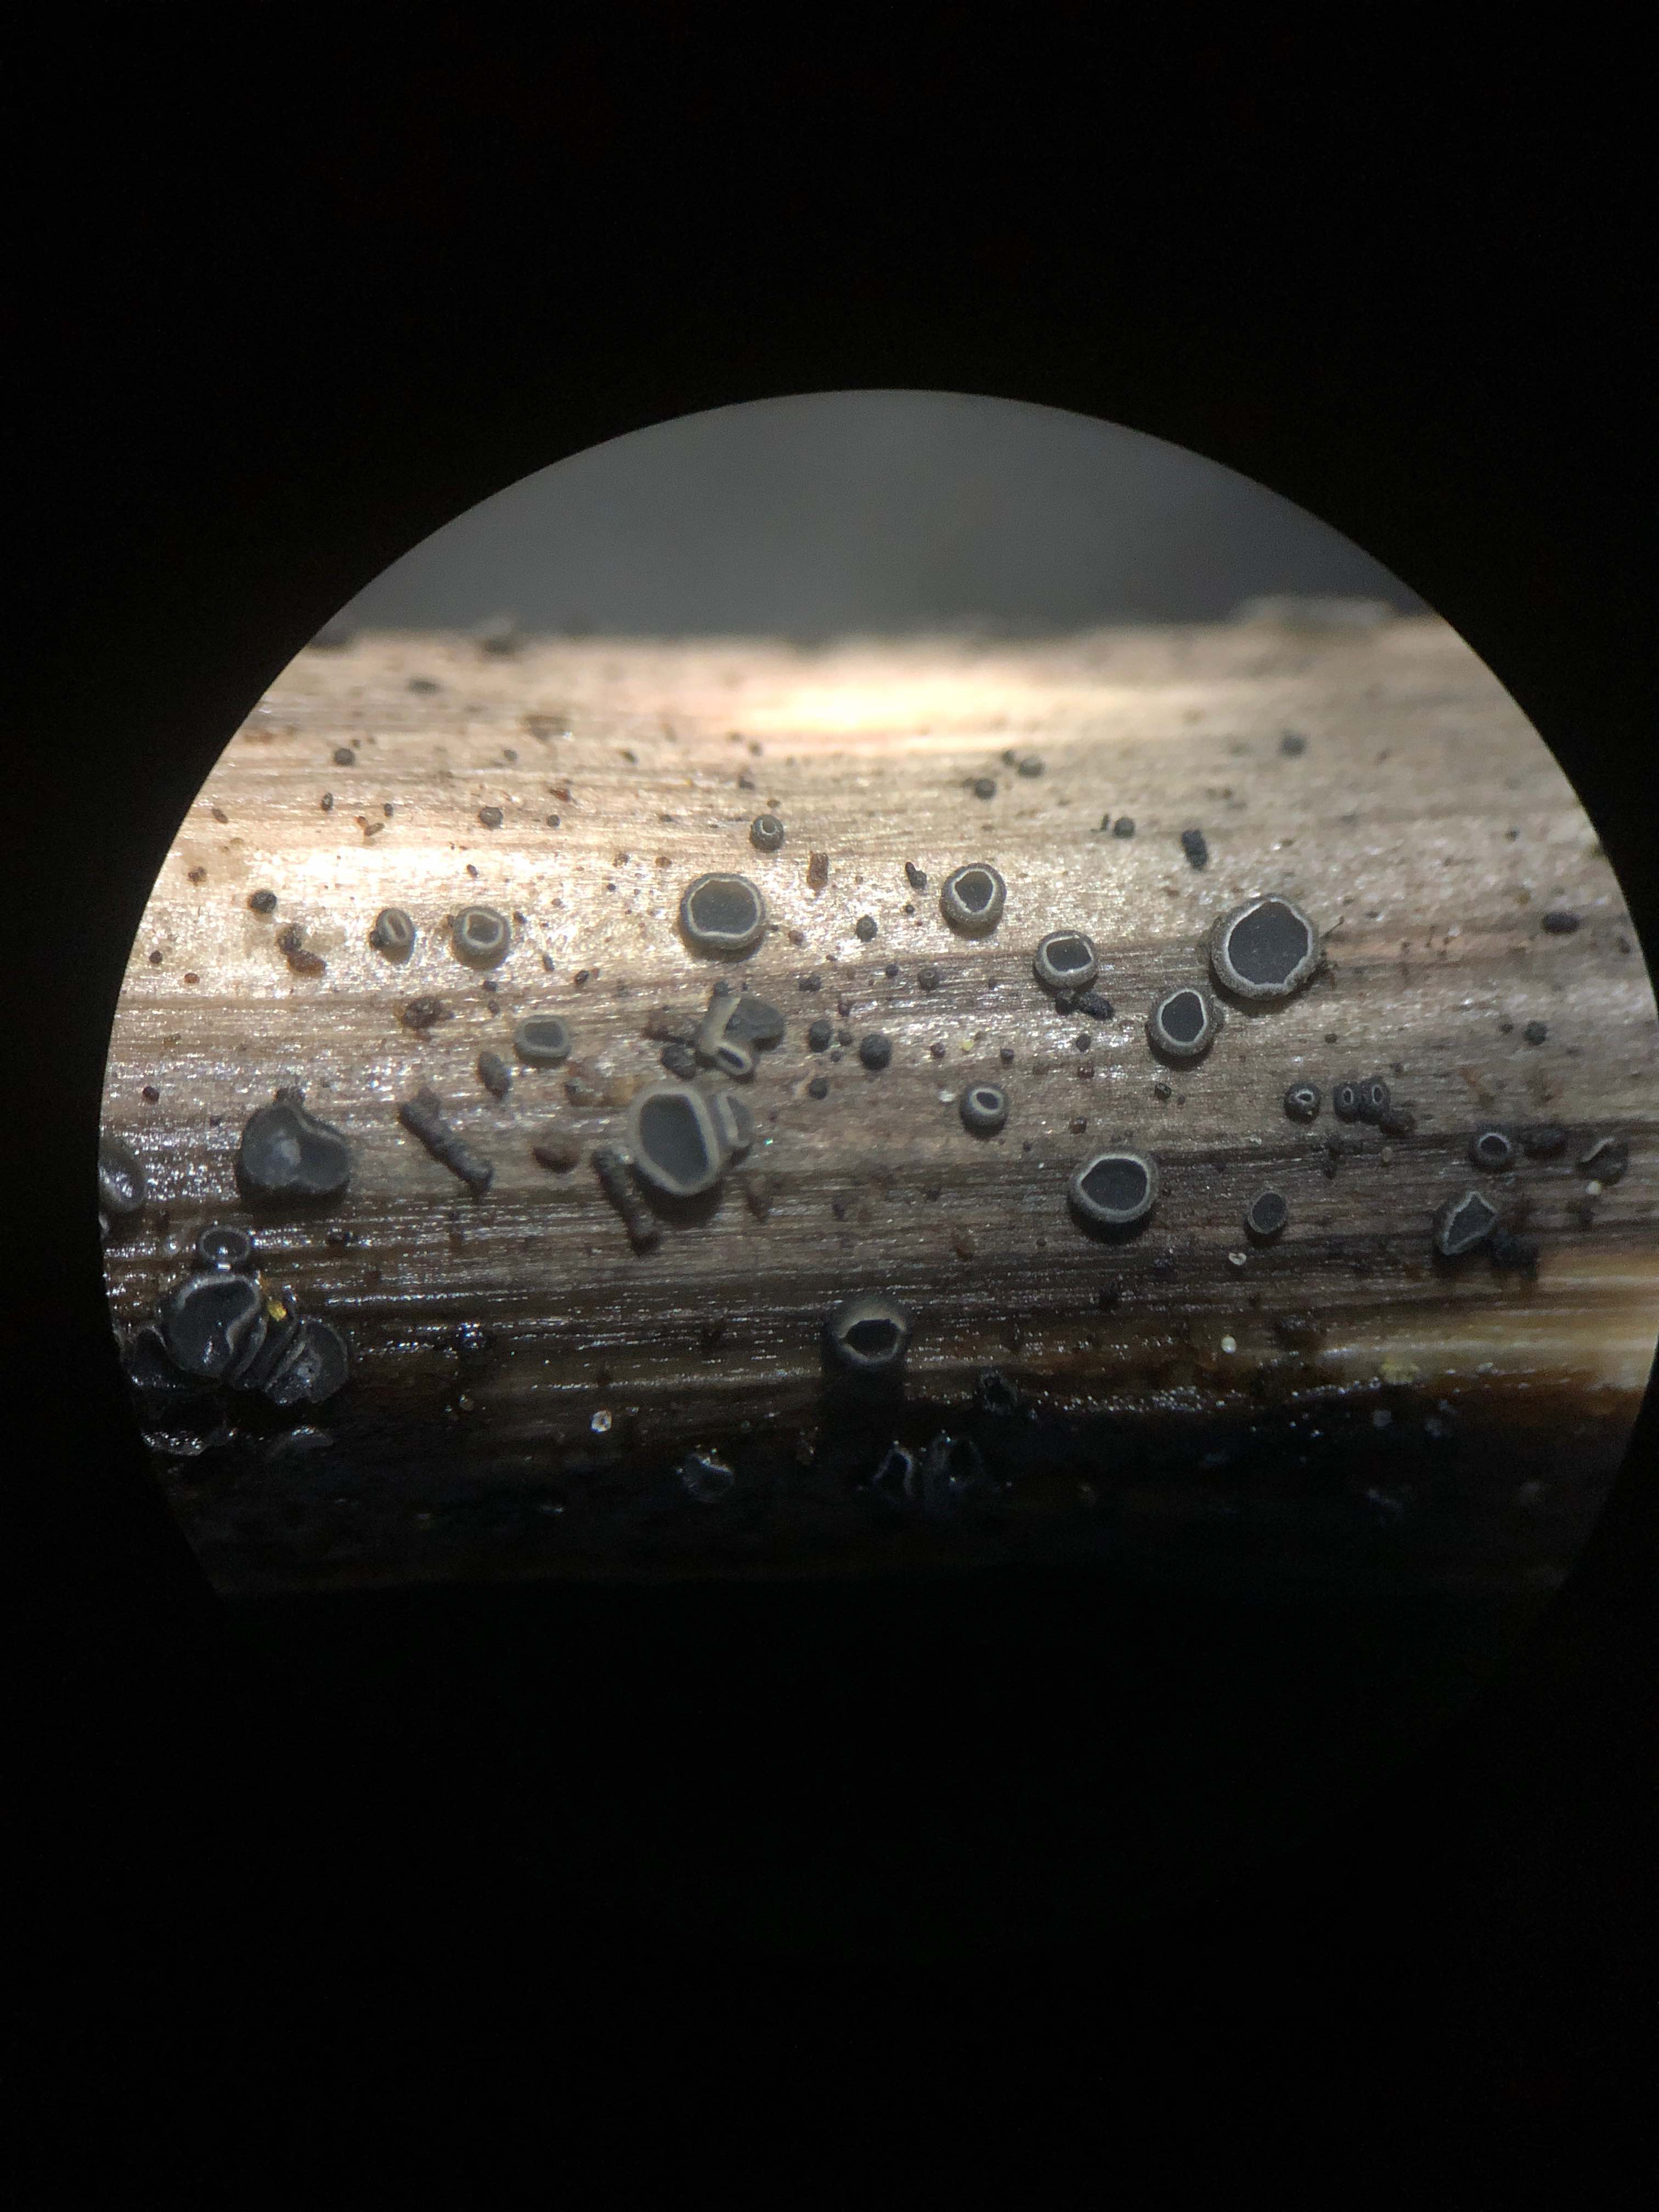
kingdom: Fungi
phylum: Ascomycota
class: Leotiomycetes
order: Helotiales
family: Mollisiaceae
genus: Mollisia
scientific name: Mollisia
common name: gråskive
